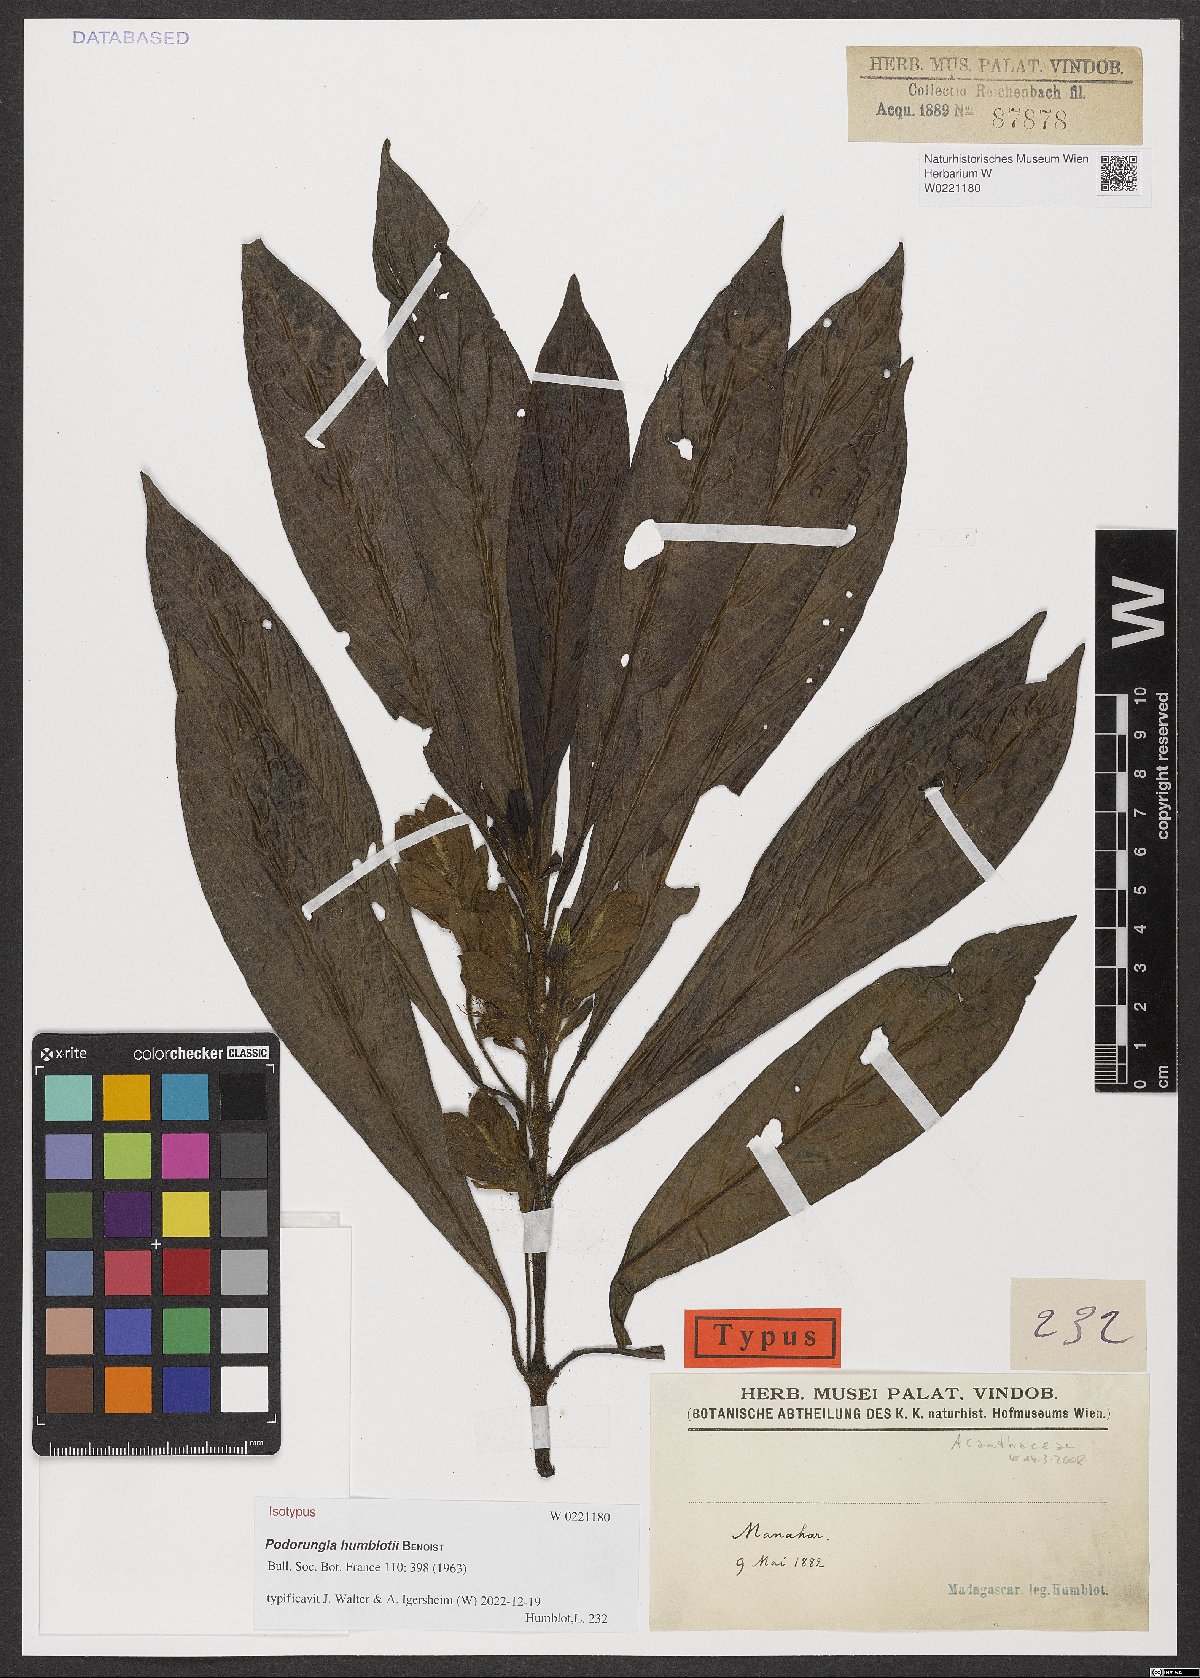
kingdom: Plantae
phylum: Tracheophyta
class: Magnoliopsida
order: Lamiales
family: Acanthaceae
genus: Podorungia
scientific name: Podorungia humblotii
